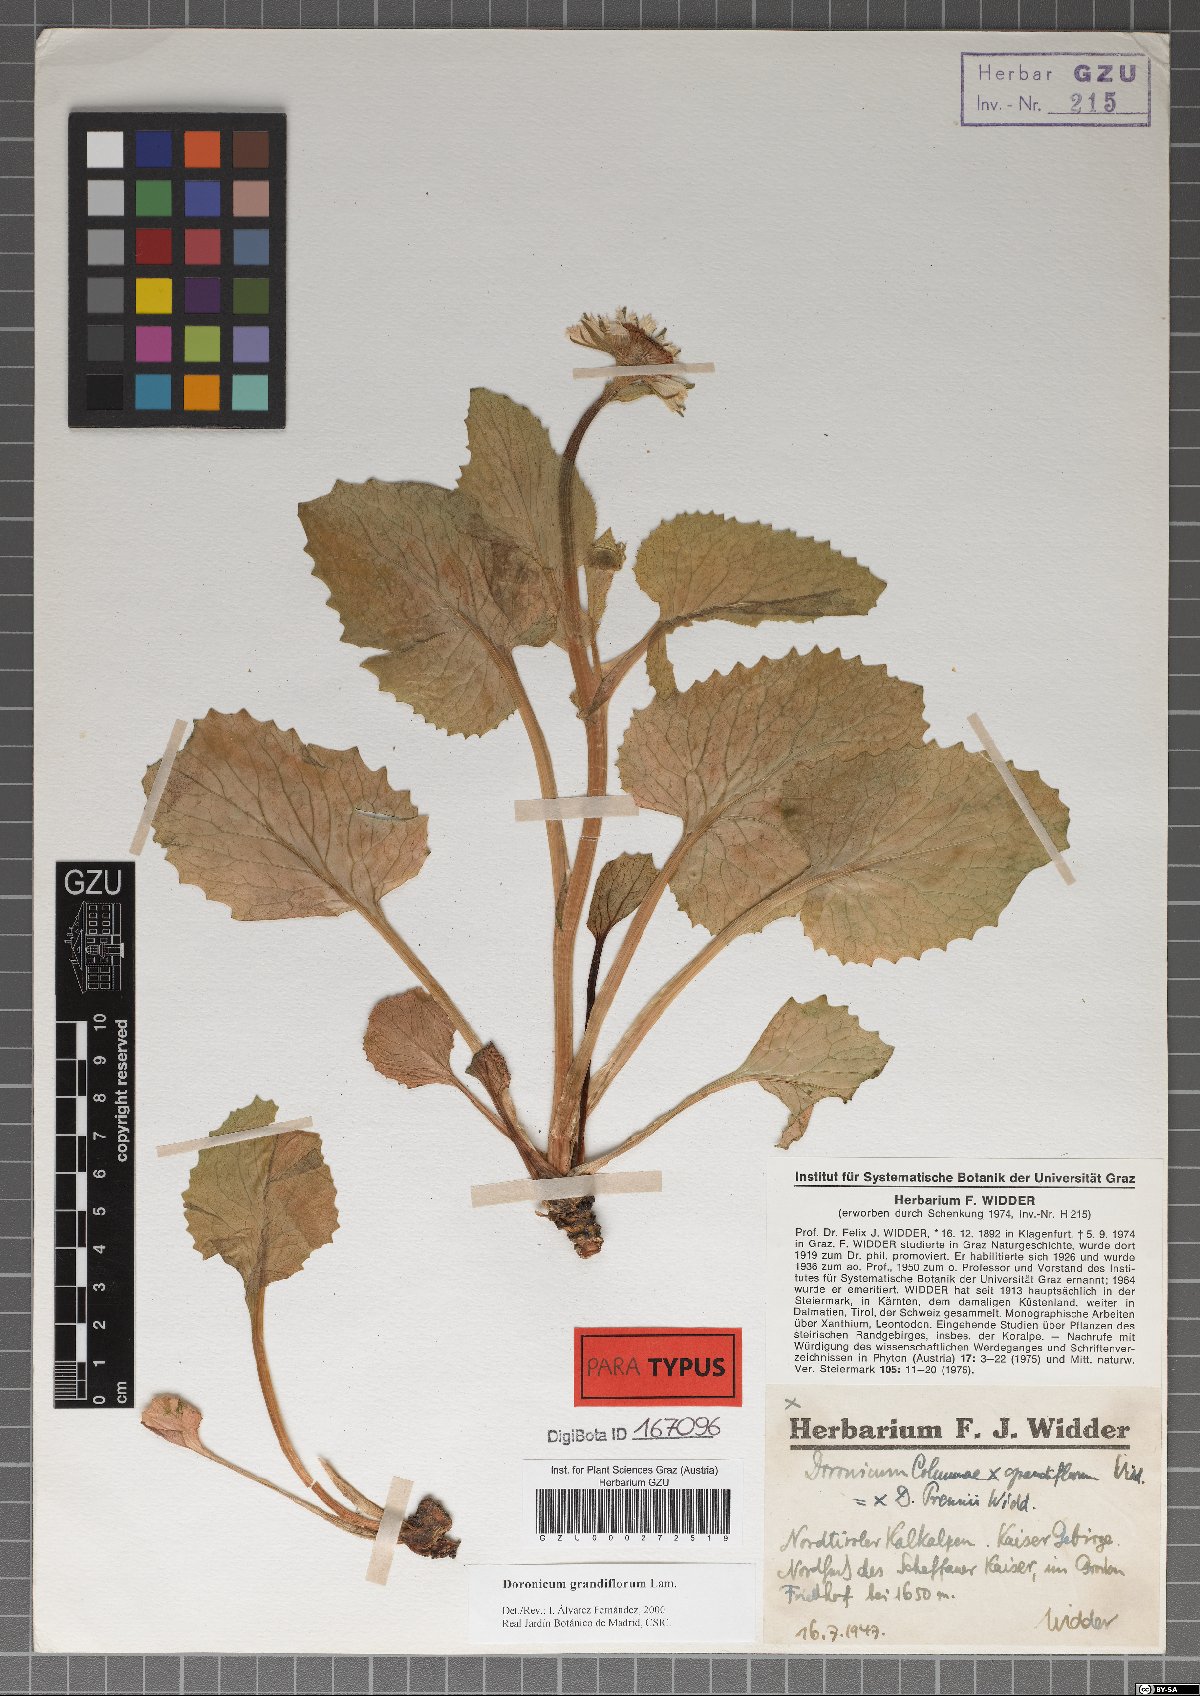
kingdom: Plantae
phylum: Tracheophyta
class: Magnoliopsida
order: Asterales
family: Asteraceae
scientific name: Asteraceae
